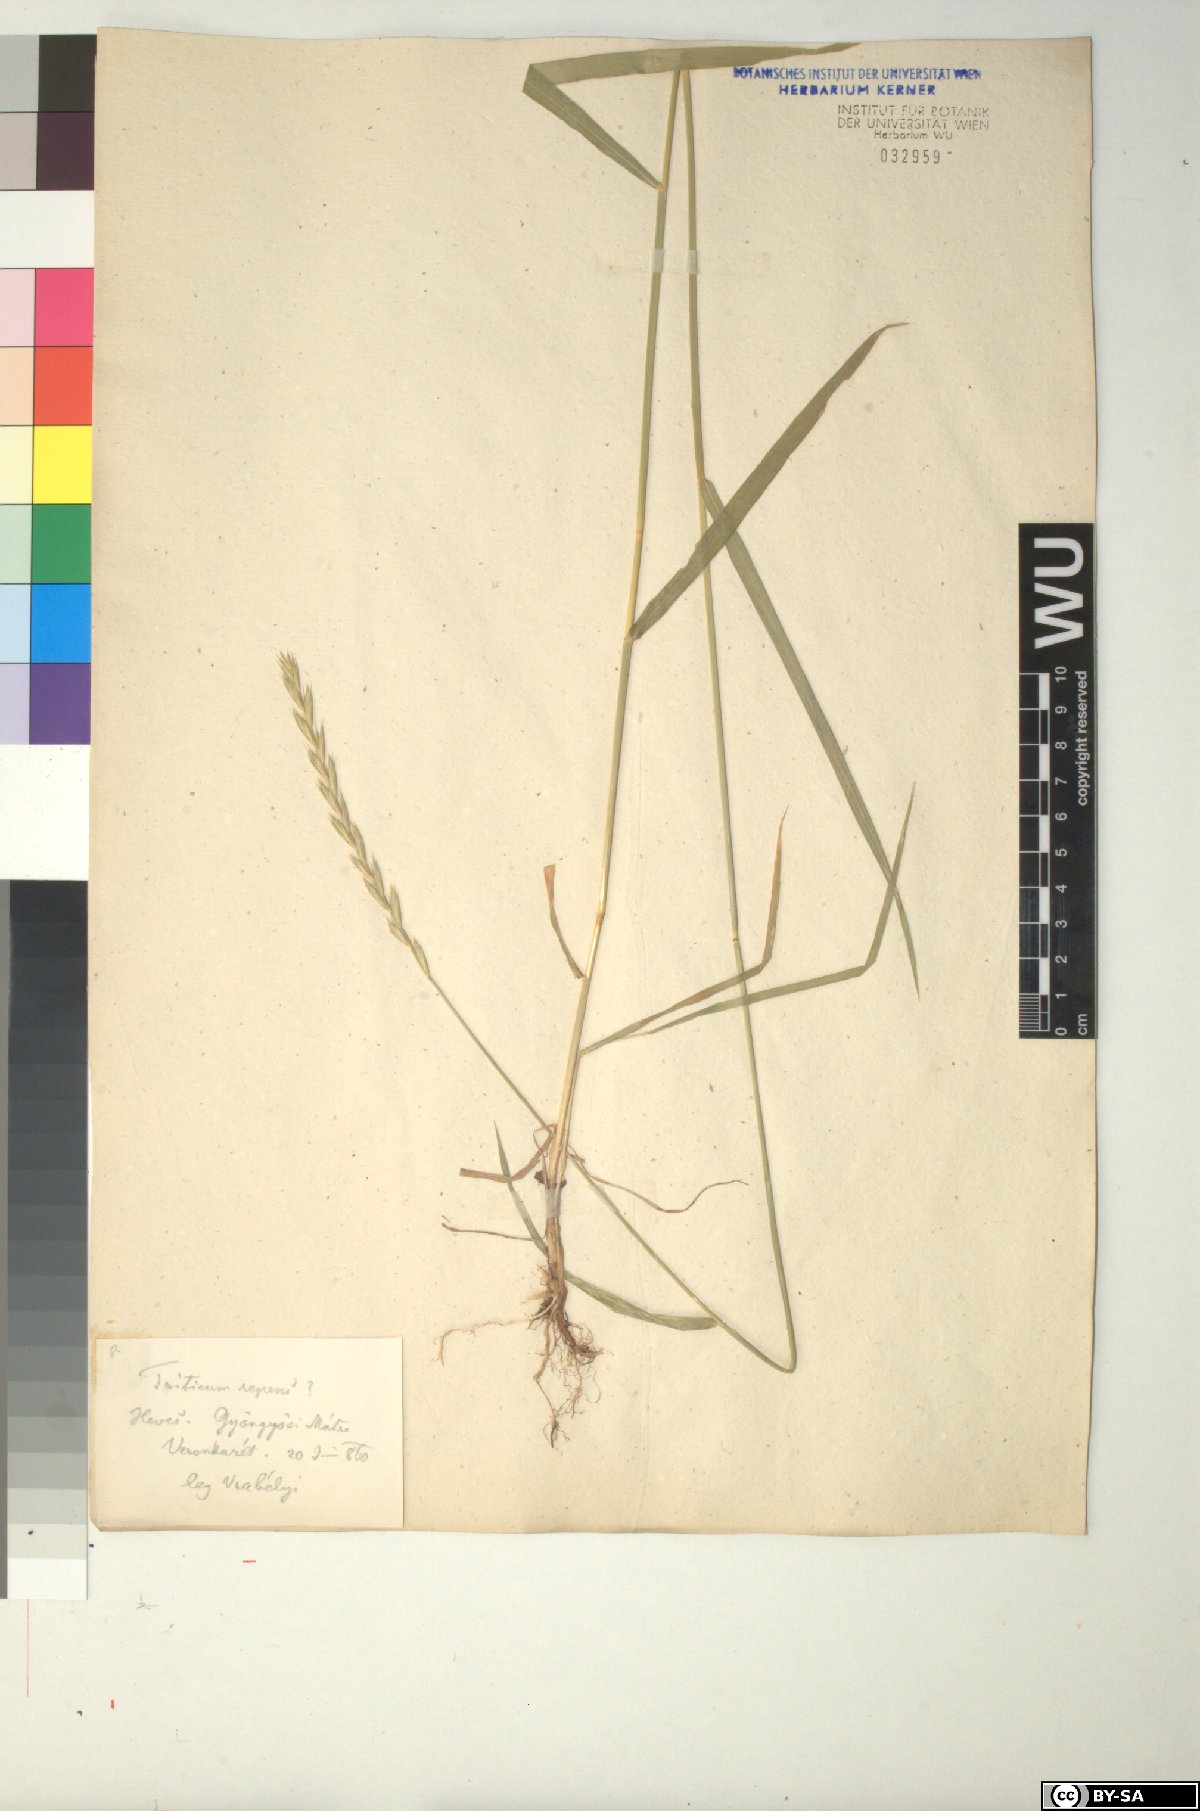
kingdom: Plantae
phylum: Tracheophyta
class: Liliopsida
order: Poales
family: Poaceae
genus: Elymus
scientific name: Elymus repens
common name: Quackgrass
